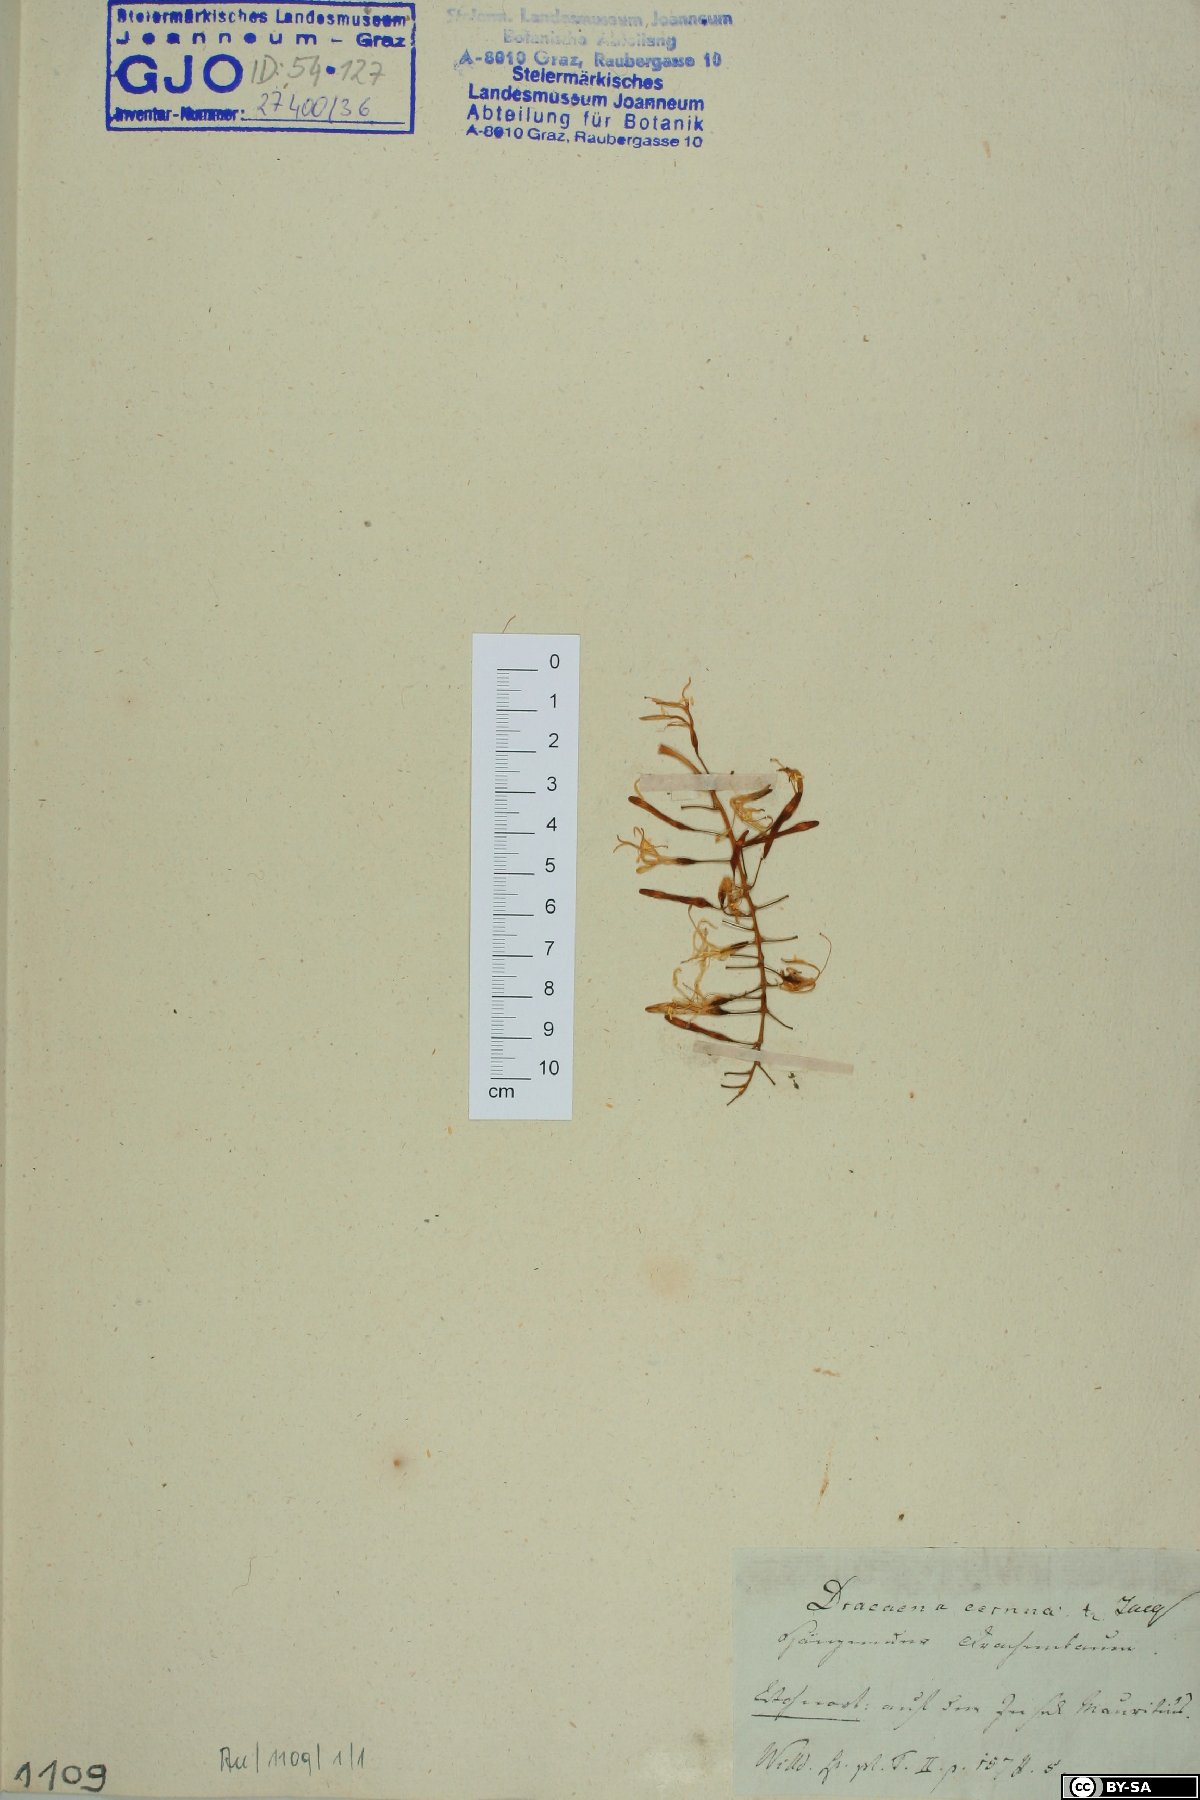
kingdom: Plantae
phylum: Tracheophyta
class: Liliopsida
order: Asparagales
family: Asparagaceae
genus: Dracaena
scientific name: Dracaena reflexa
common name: Song-of-india
